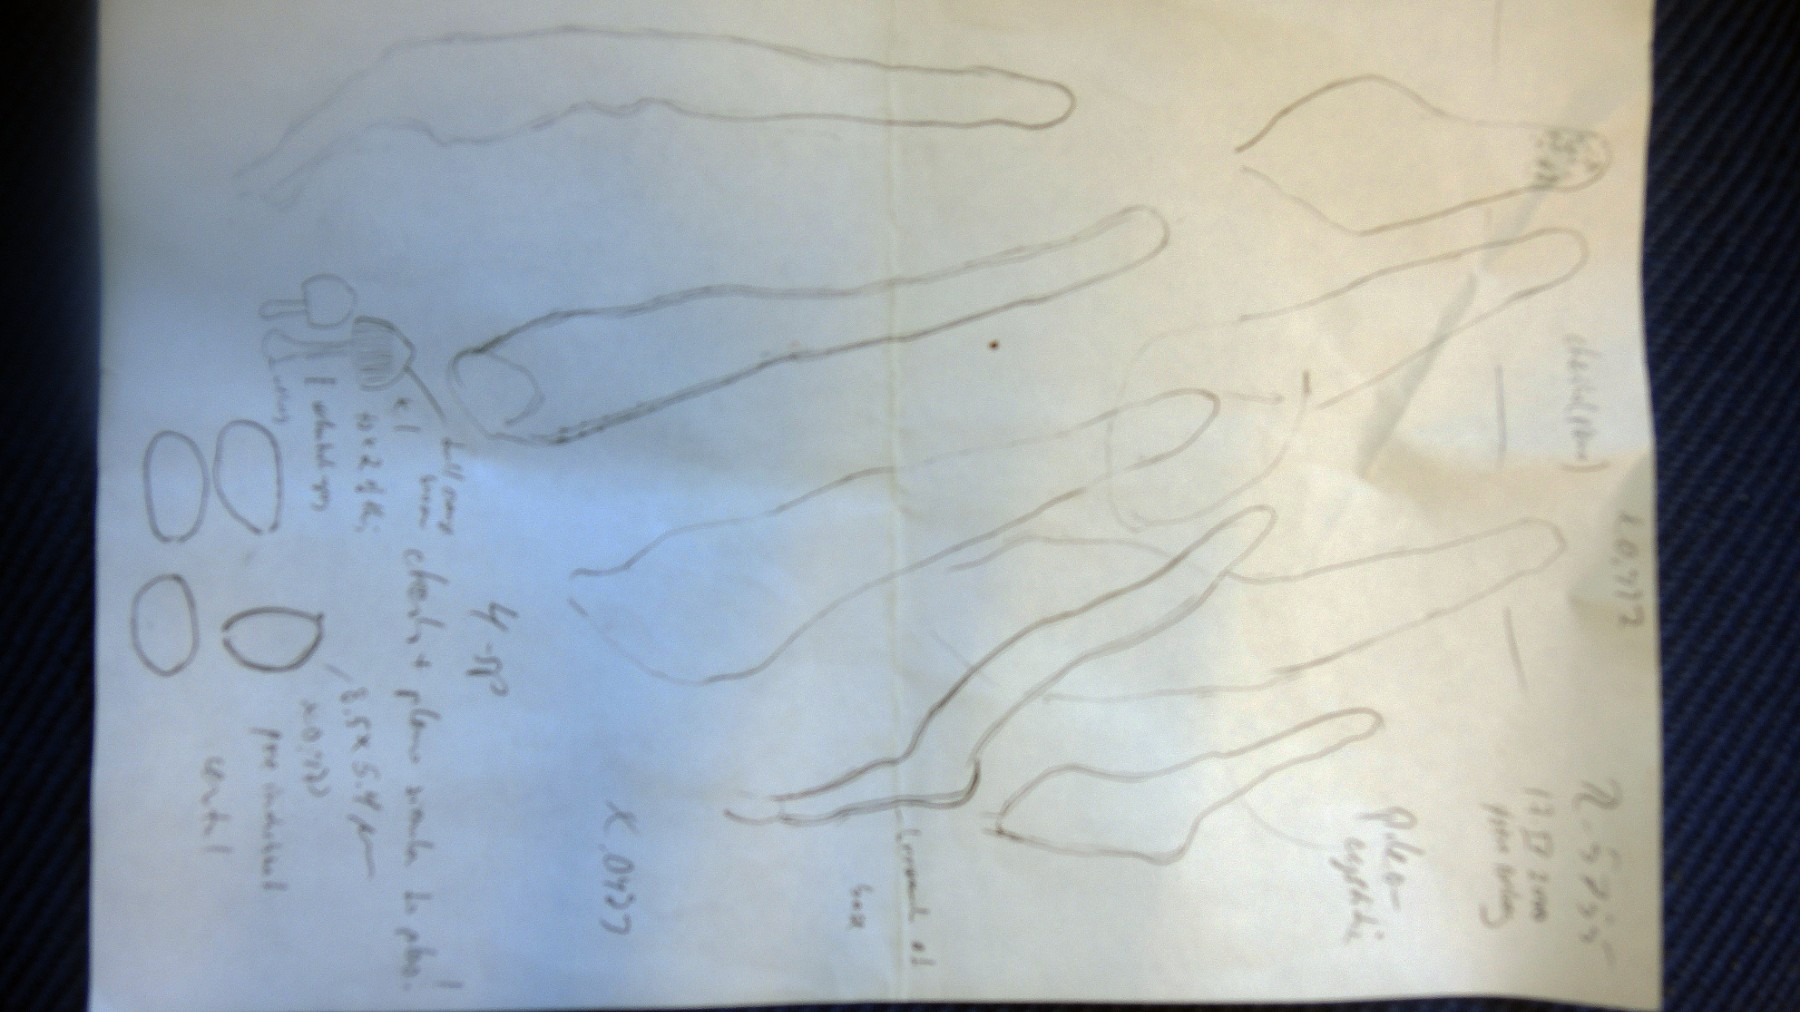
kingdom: Fungi
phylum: Basidiomycota
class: Agaricomycetes
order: Agaricales
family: Psathyrellaceae
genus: Coprinellus
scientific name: Coprinellus
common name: blækhat
